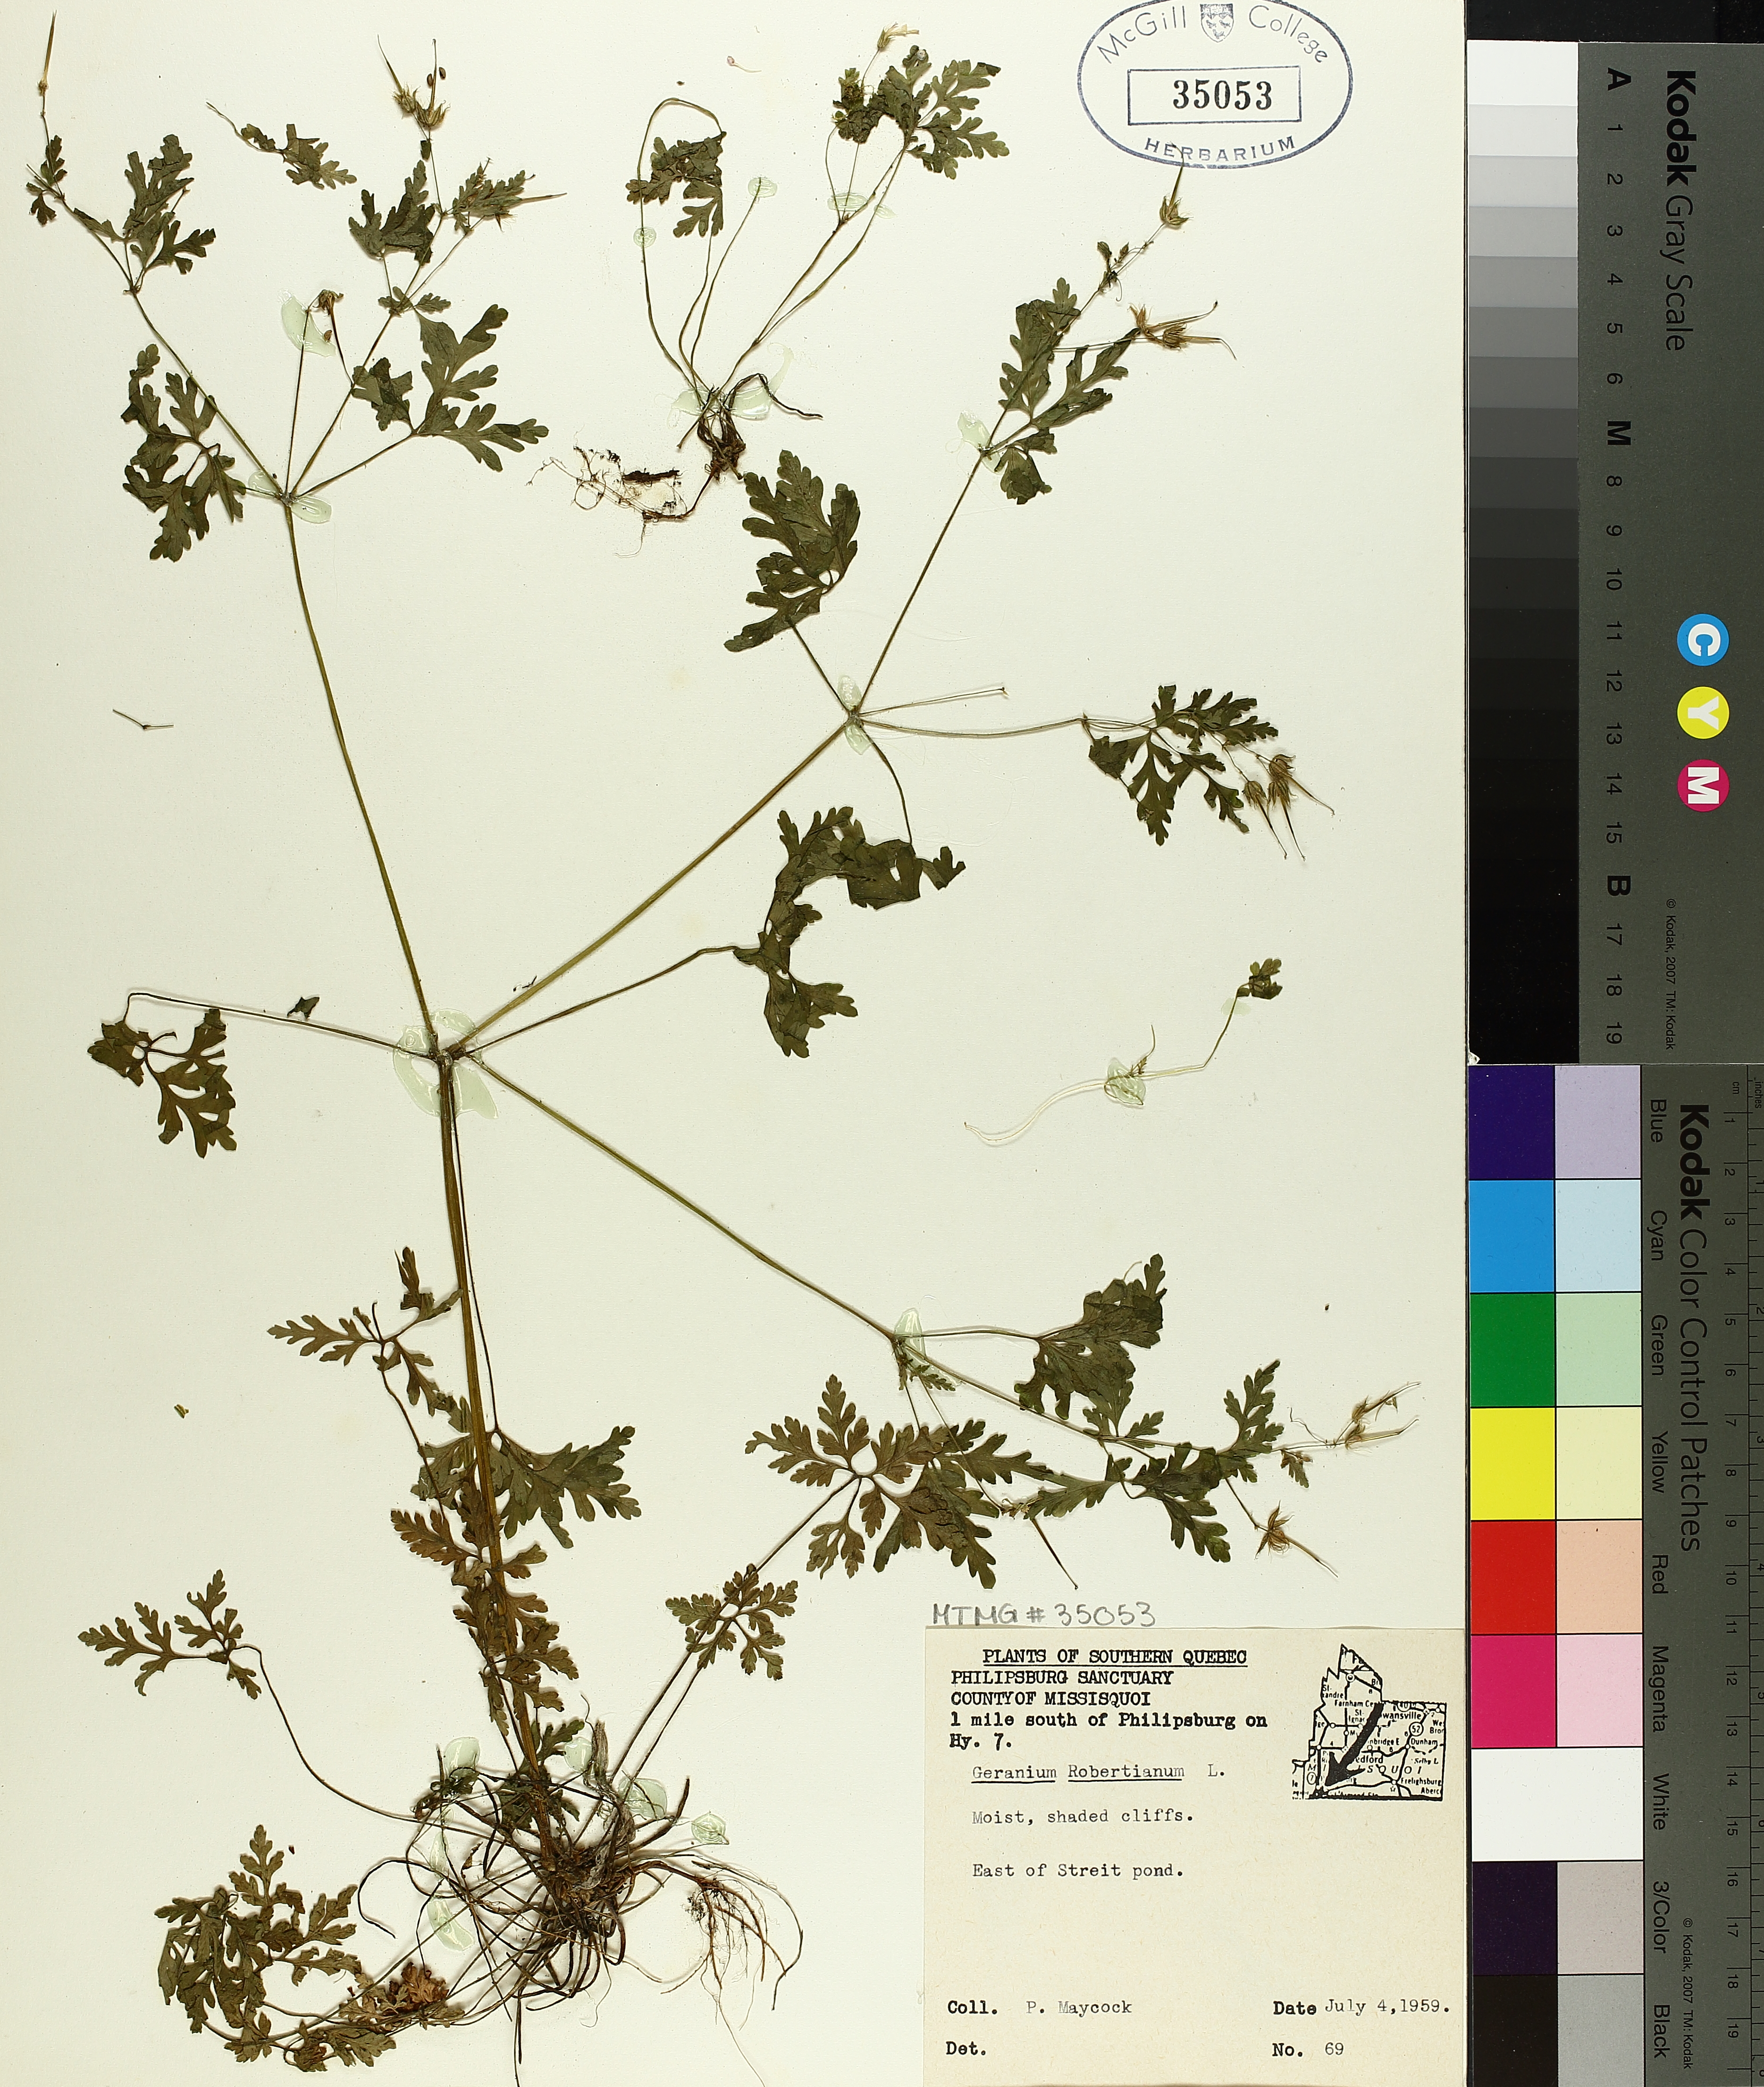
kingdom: Plantae
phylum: Tracheophyta
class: Magnoliopsida
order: Geraniales
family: Geraniaceae
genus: Geranium
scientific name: Geranium robertianum
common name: Herb-robert
